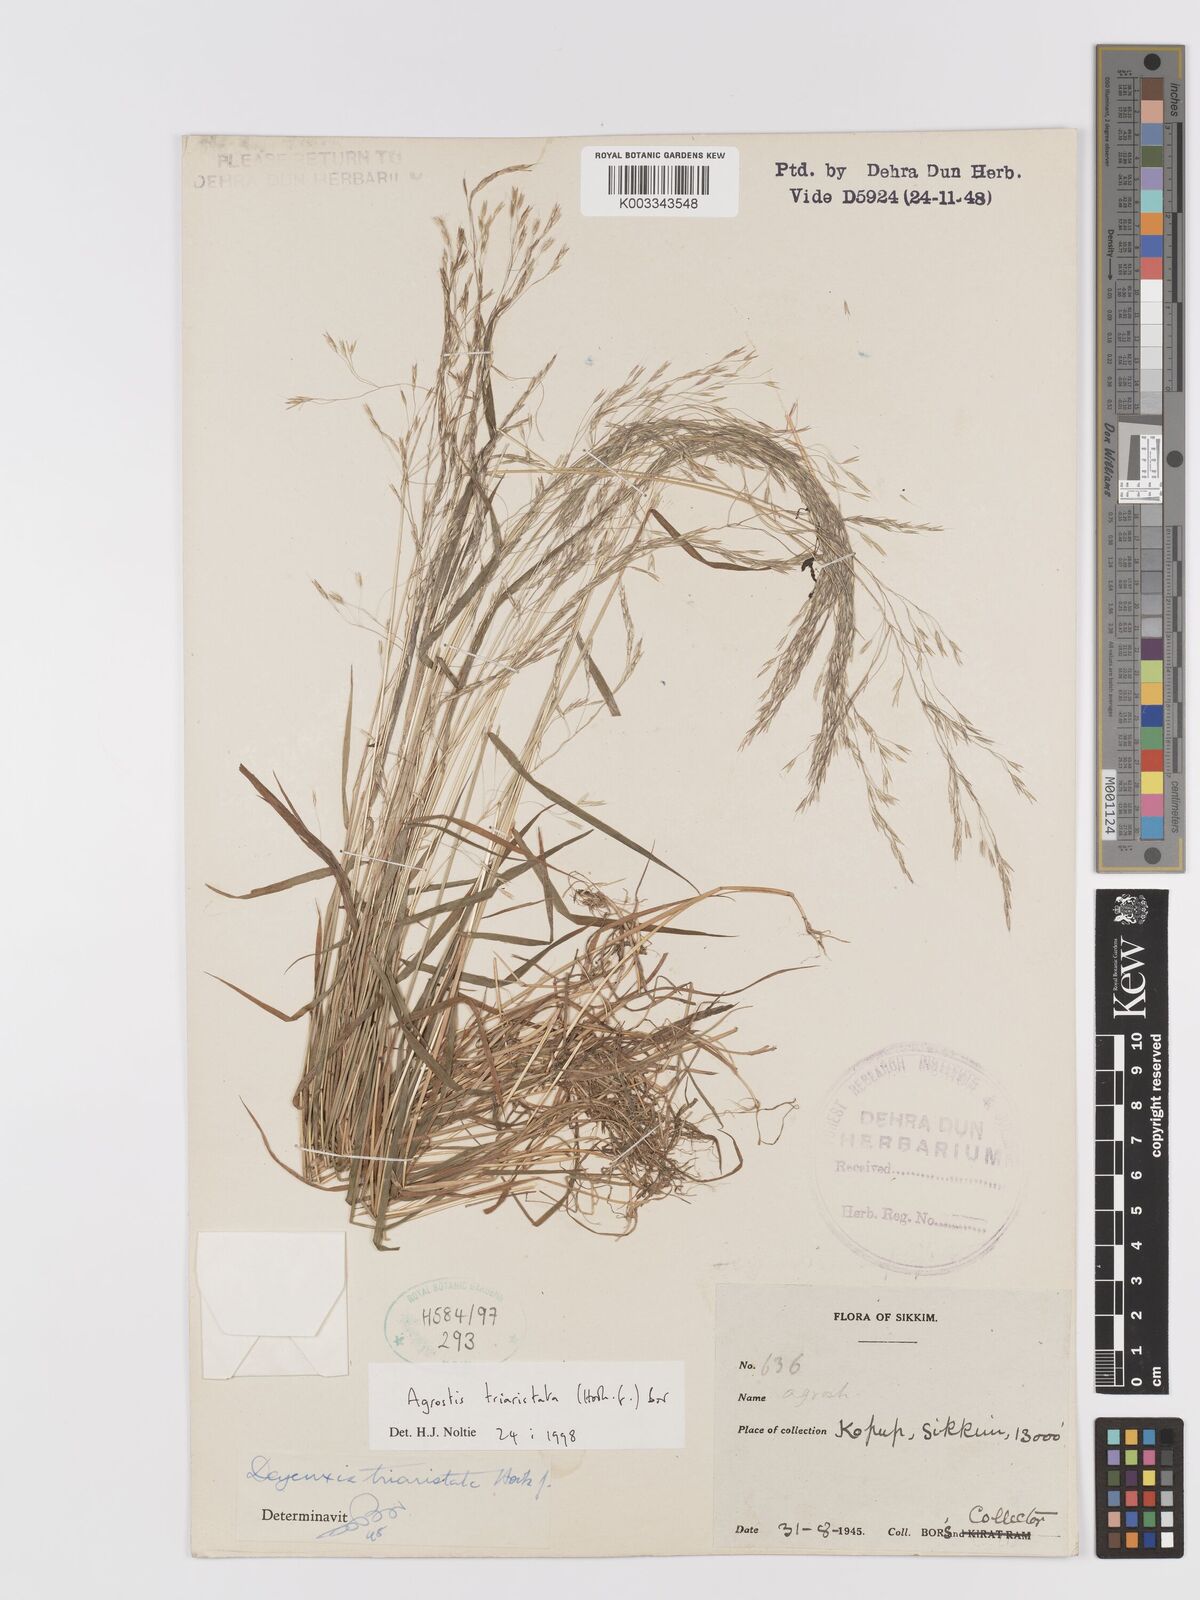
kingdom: Plantae
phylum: Tracheophyta
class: Liliopsida
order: Poales
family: Poaceae
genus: Agrostis
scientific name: Agrostis
